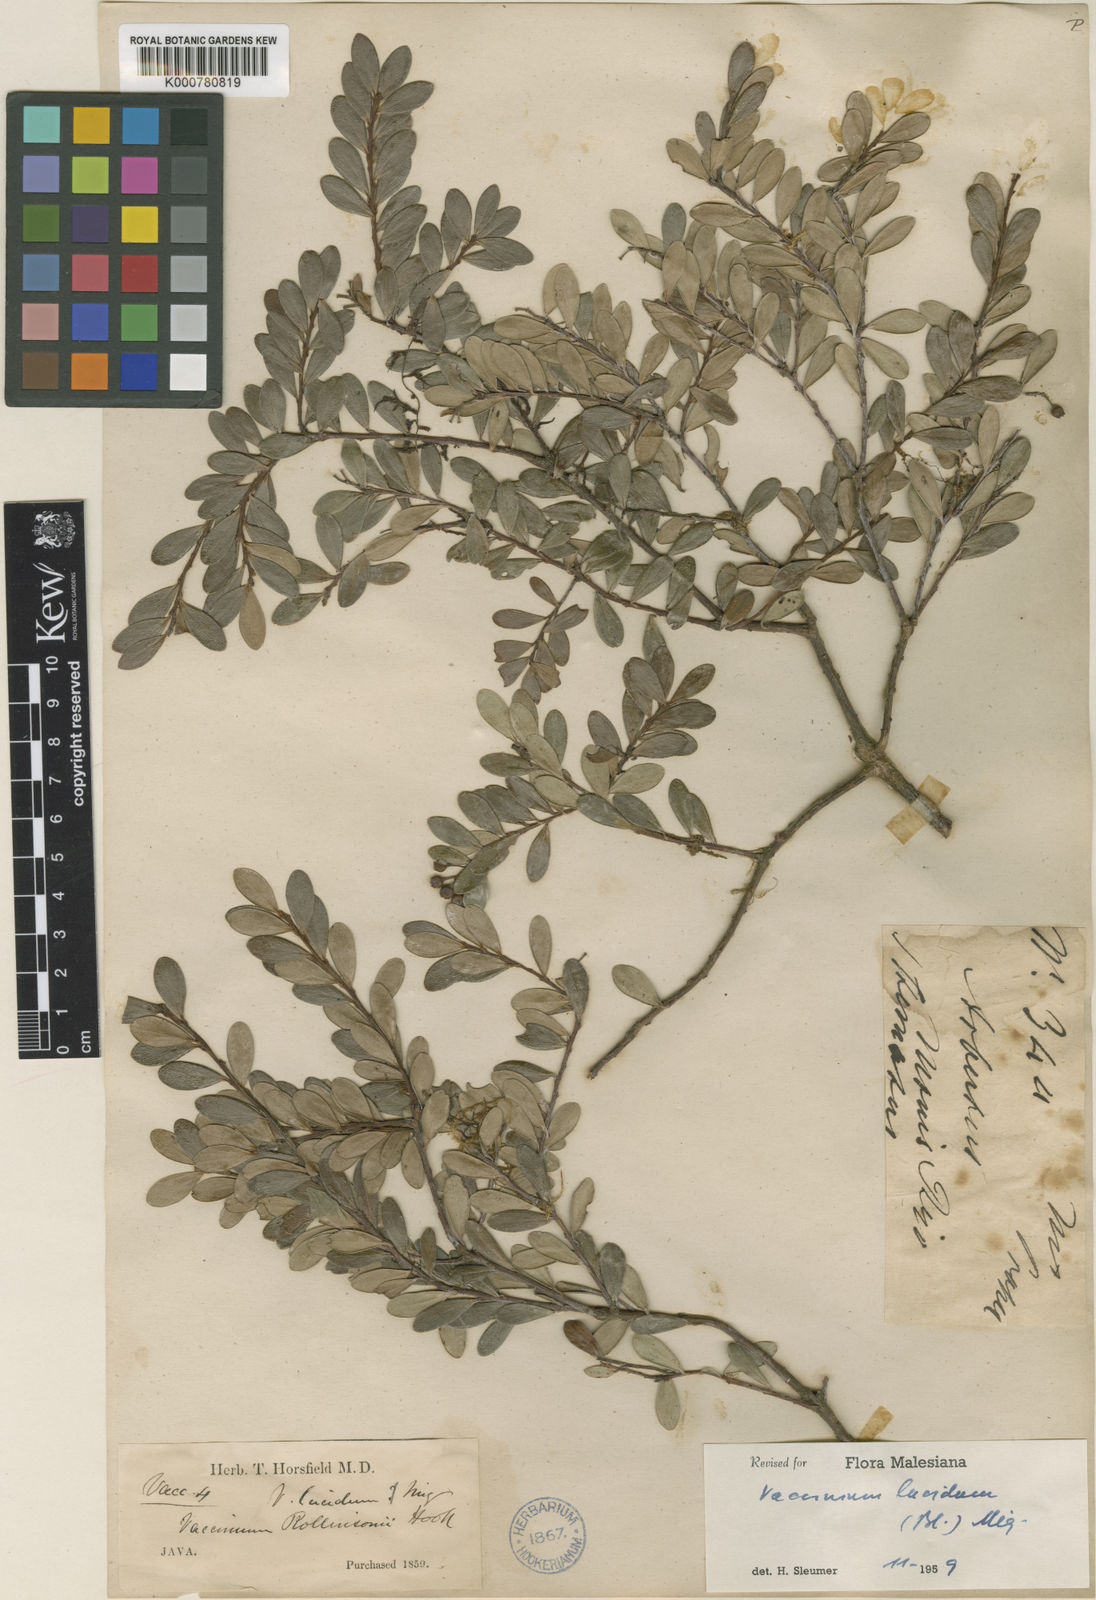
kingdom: Plantae
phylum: Tracheophyta
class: Magnoliopsida
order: Ericales
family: Ericaceae
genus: Vaccinium
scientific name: Vaccinium lucidum
